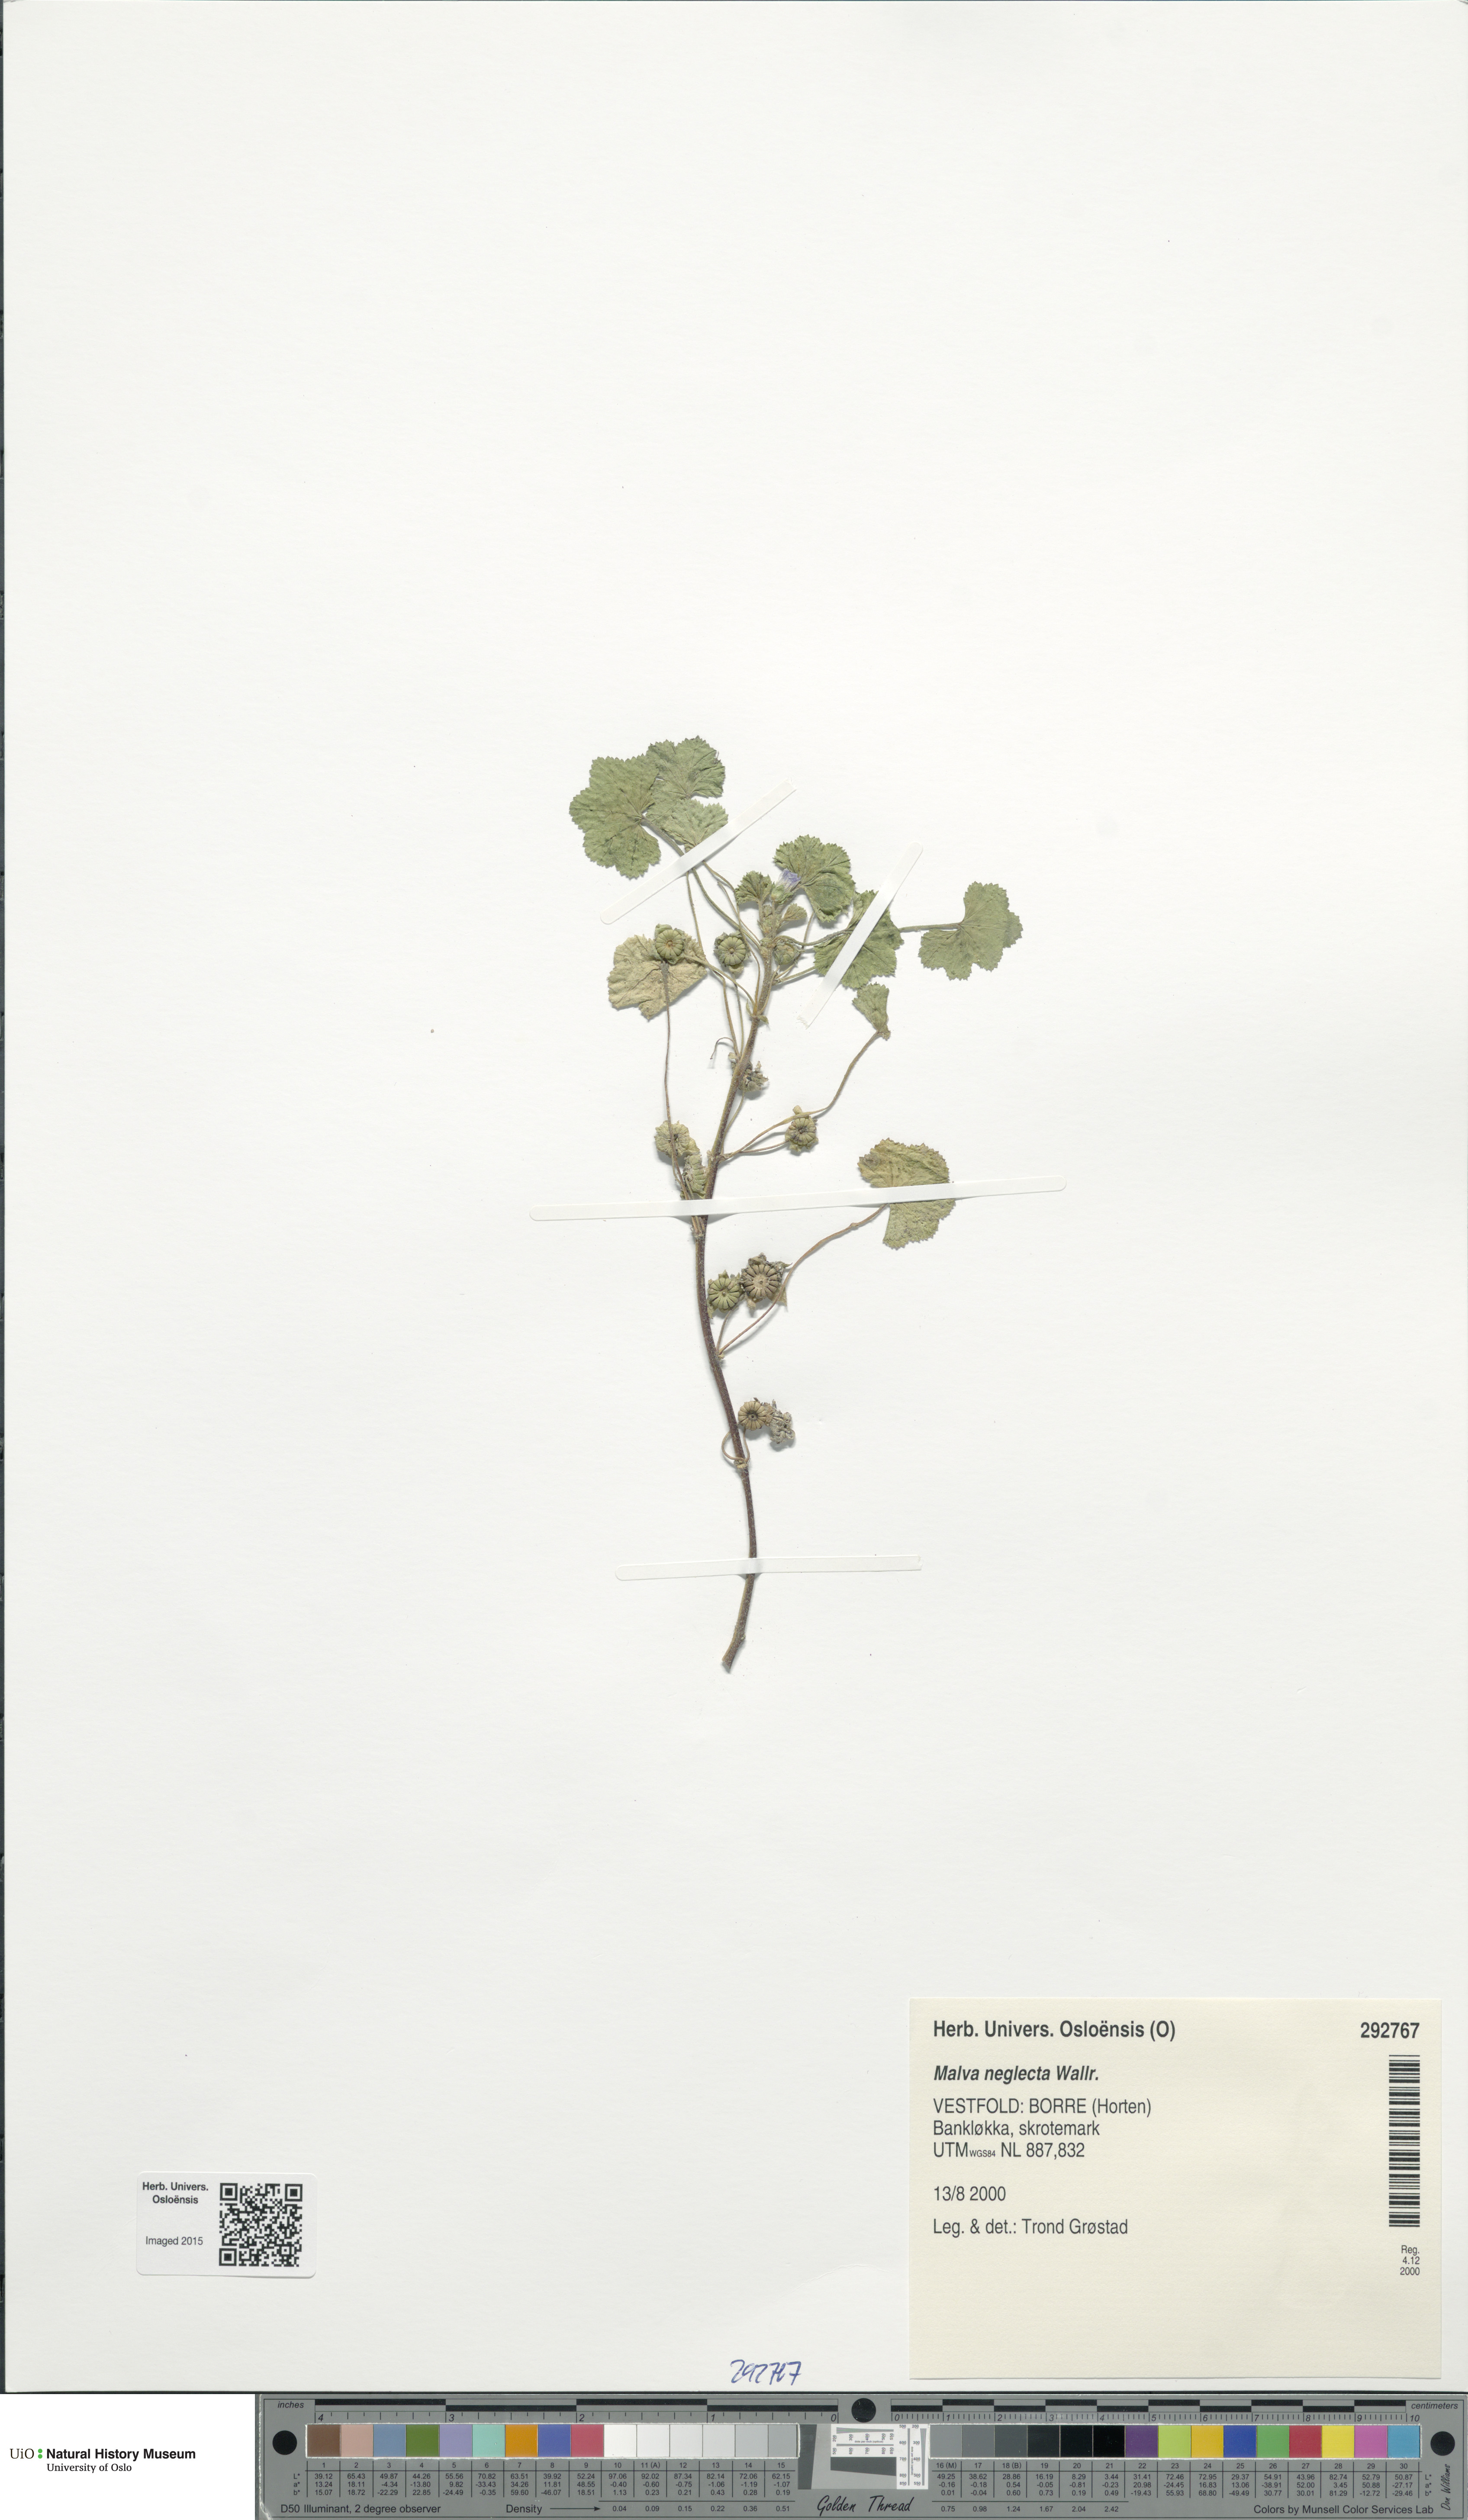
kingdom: Plantae
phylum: Tracheophyta
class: Magnoliopsida
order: Malvales
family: Malvaceae
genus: Malva
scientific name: Malva neglecta
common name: Common mallow
